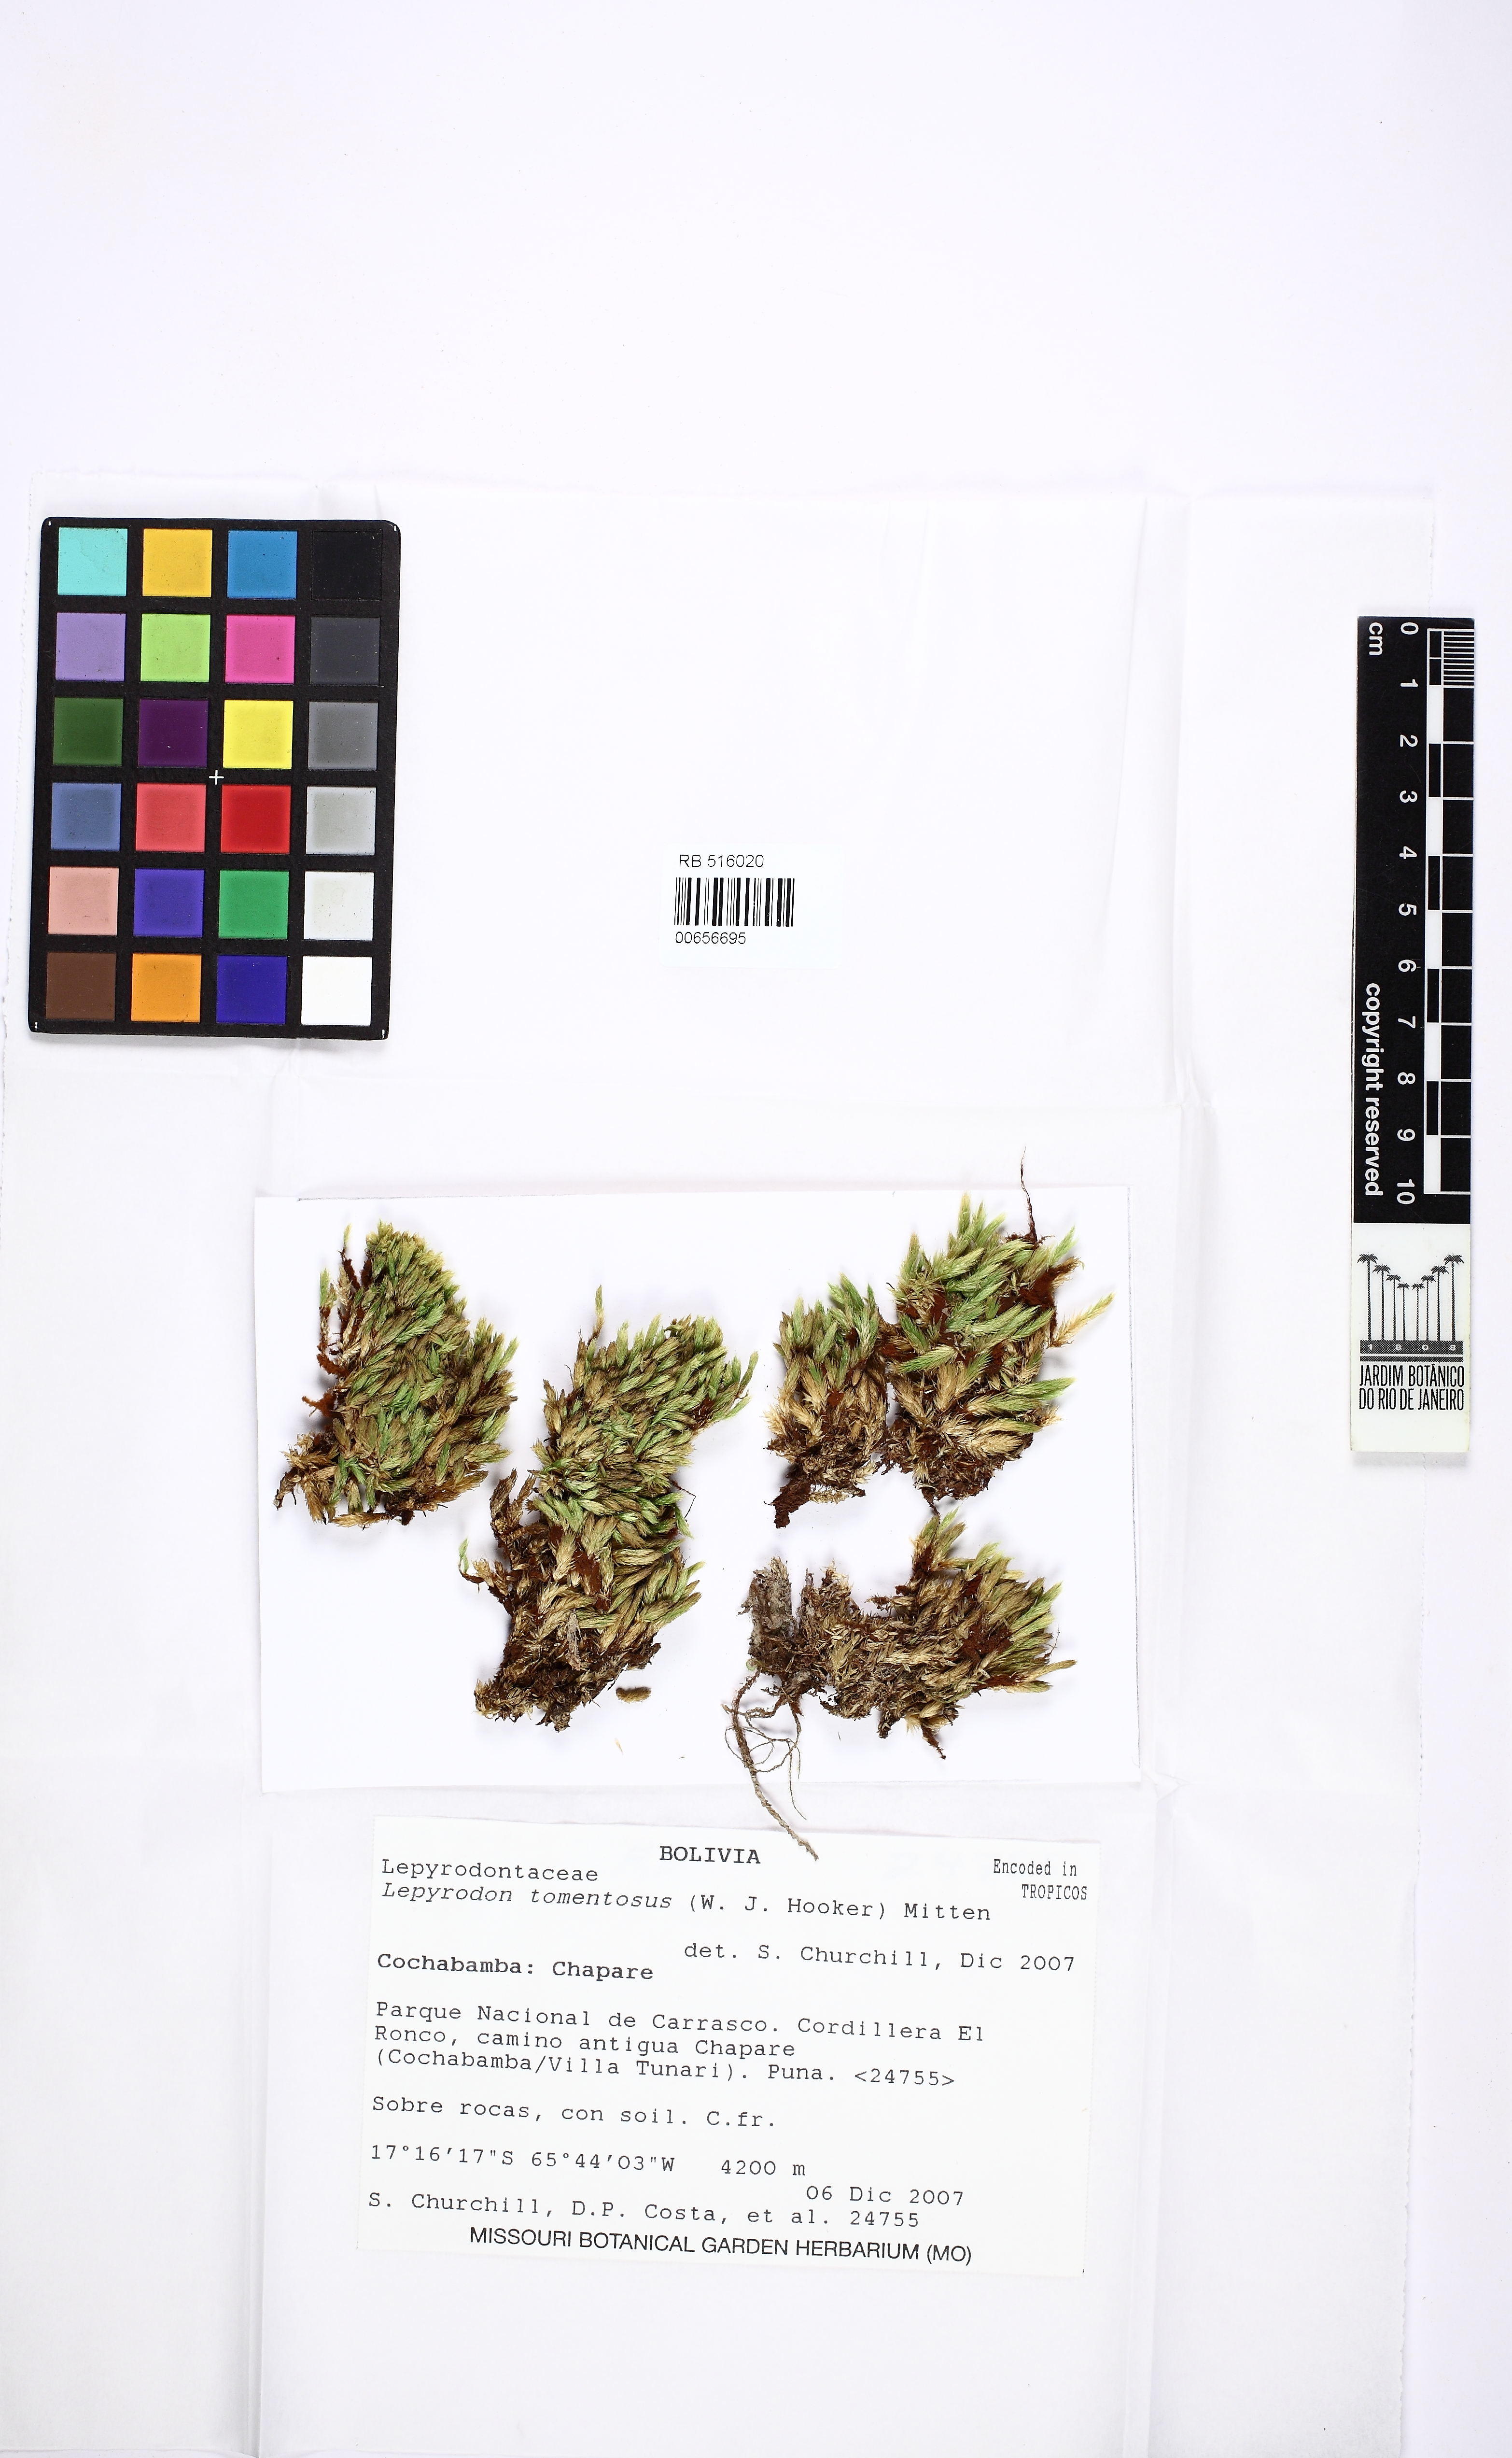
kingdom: Plantae
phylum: Bryophyta
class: Bryopsida
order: Hypnales
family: Lepyrodontaceae
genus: Lepyrodon
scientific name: Lepyrodon tomentosus
